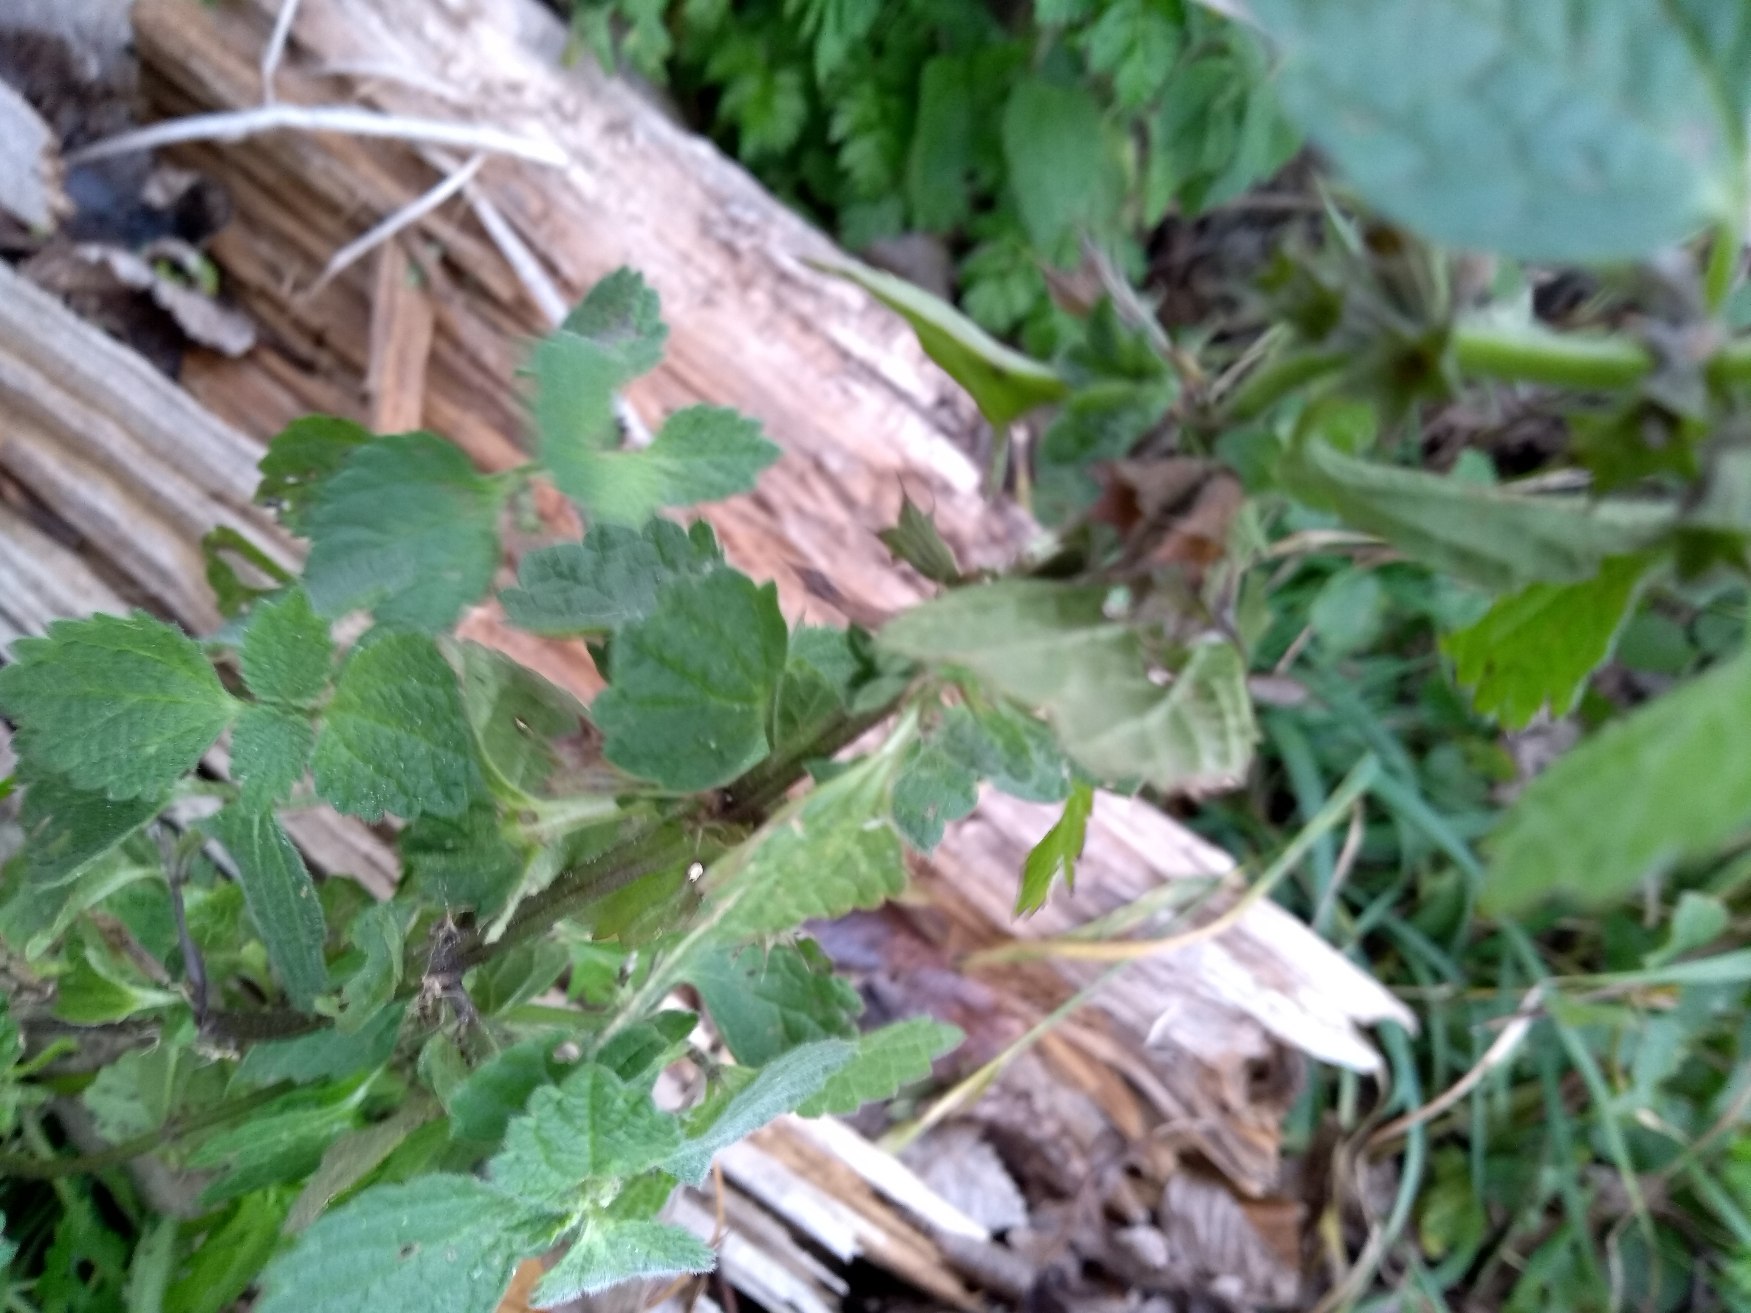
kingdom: Plantae
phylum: Tracheophyta
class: Magnoliopsida
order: Lamiales
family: Lamiaceae
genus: Ballota
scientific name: Ballota nigra
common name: Tandbæger
